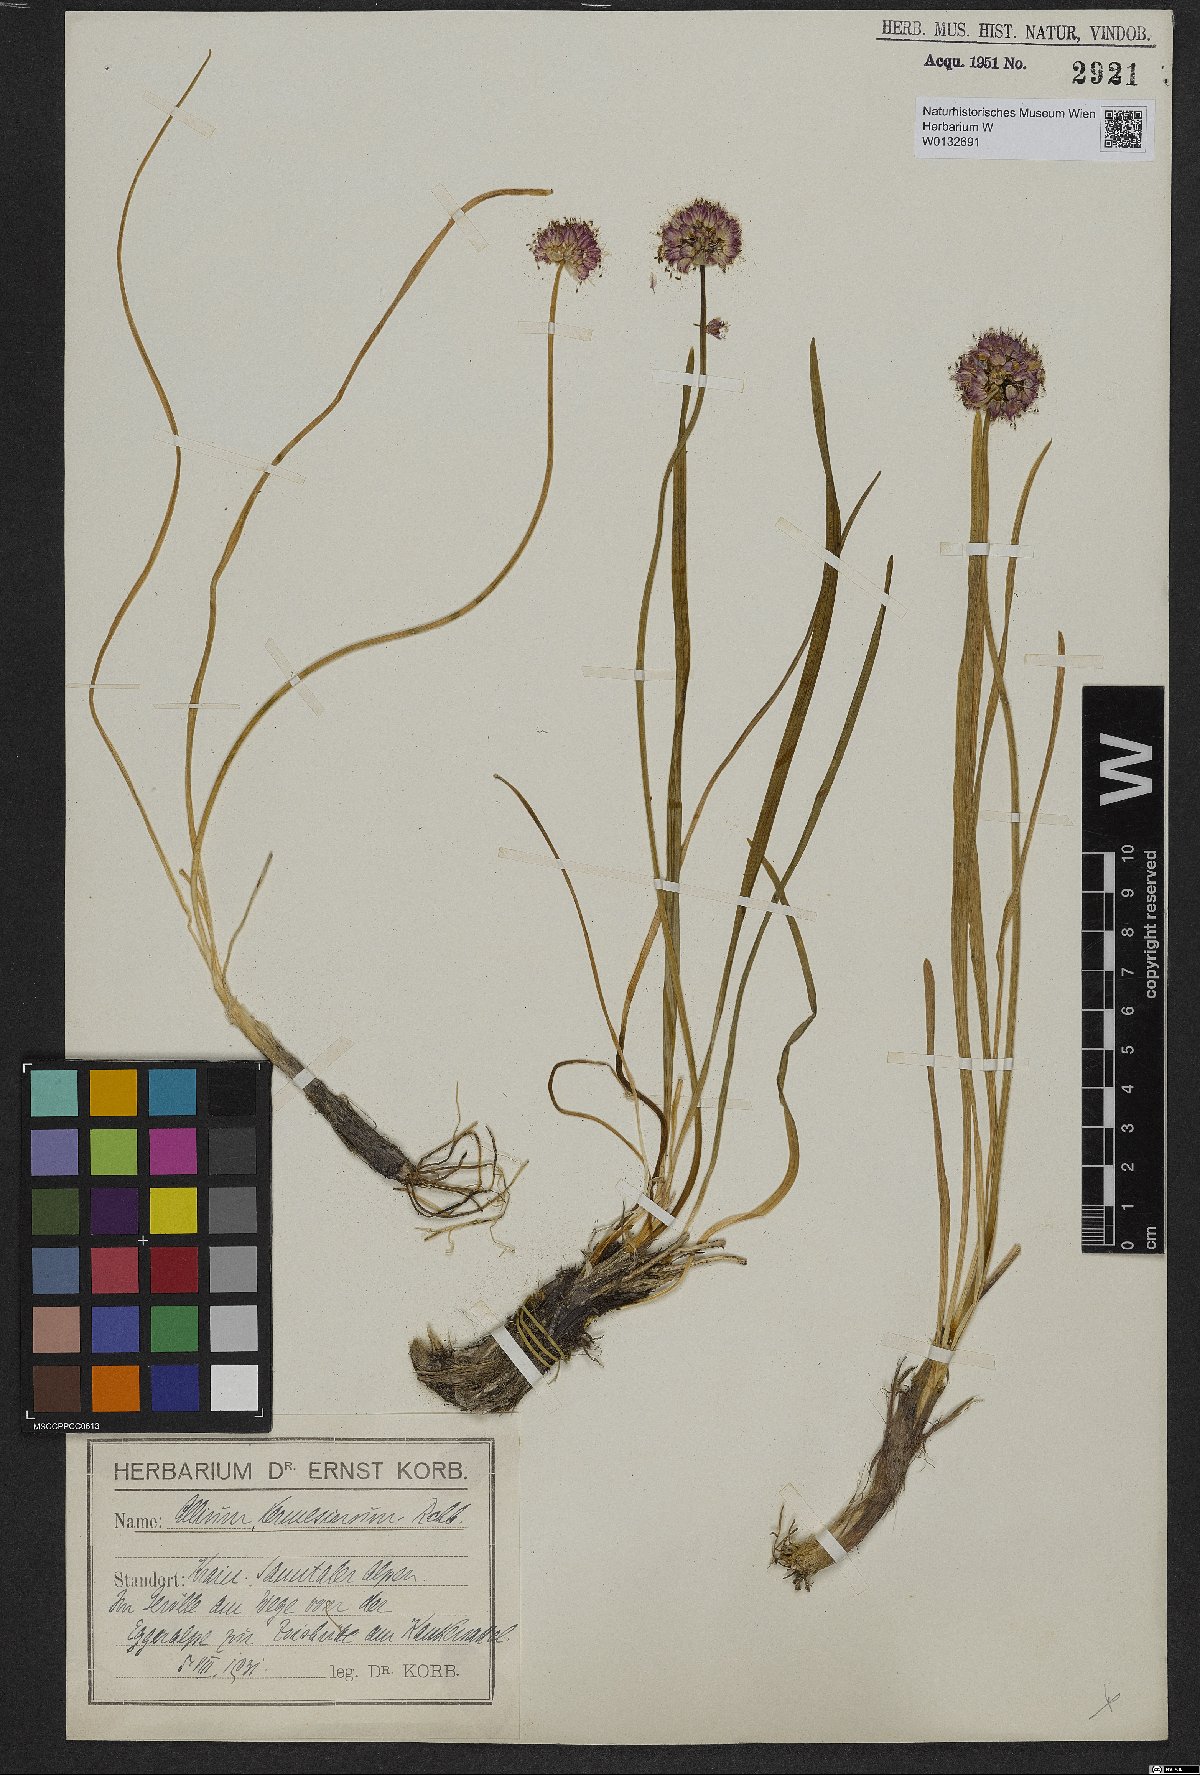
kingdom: Plantae
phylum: Tracheophyta
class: Liliopsida
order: Asparagales
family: Amaryllidaceae
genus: Allium
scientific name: Allium kermesinum
